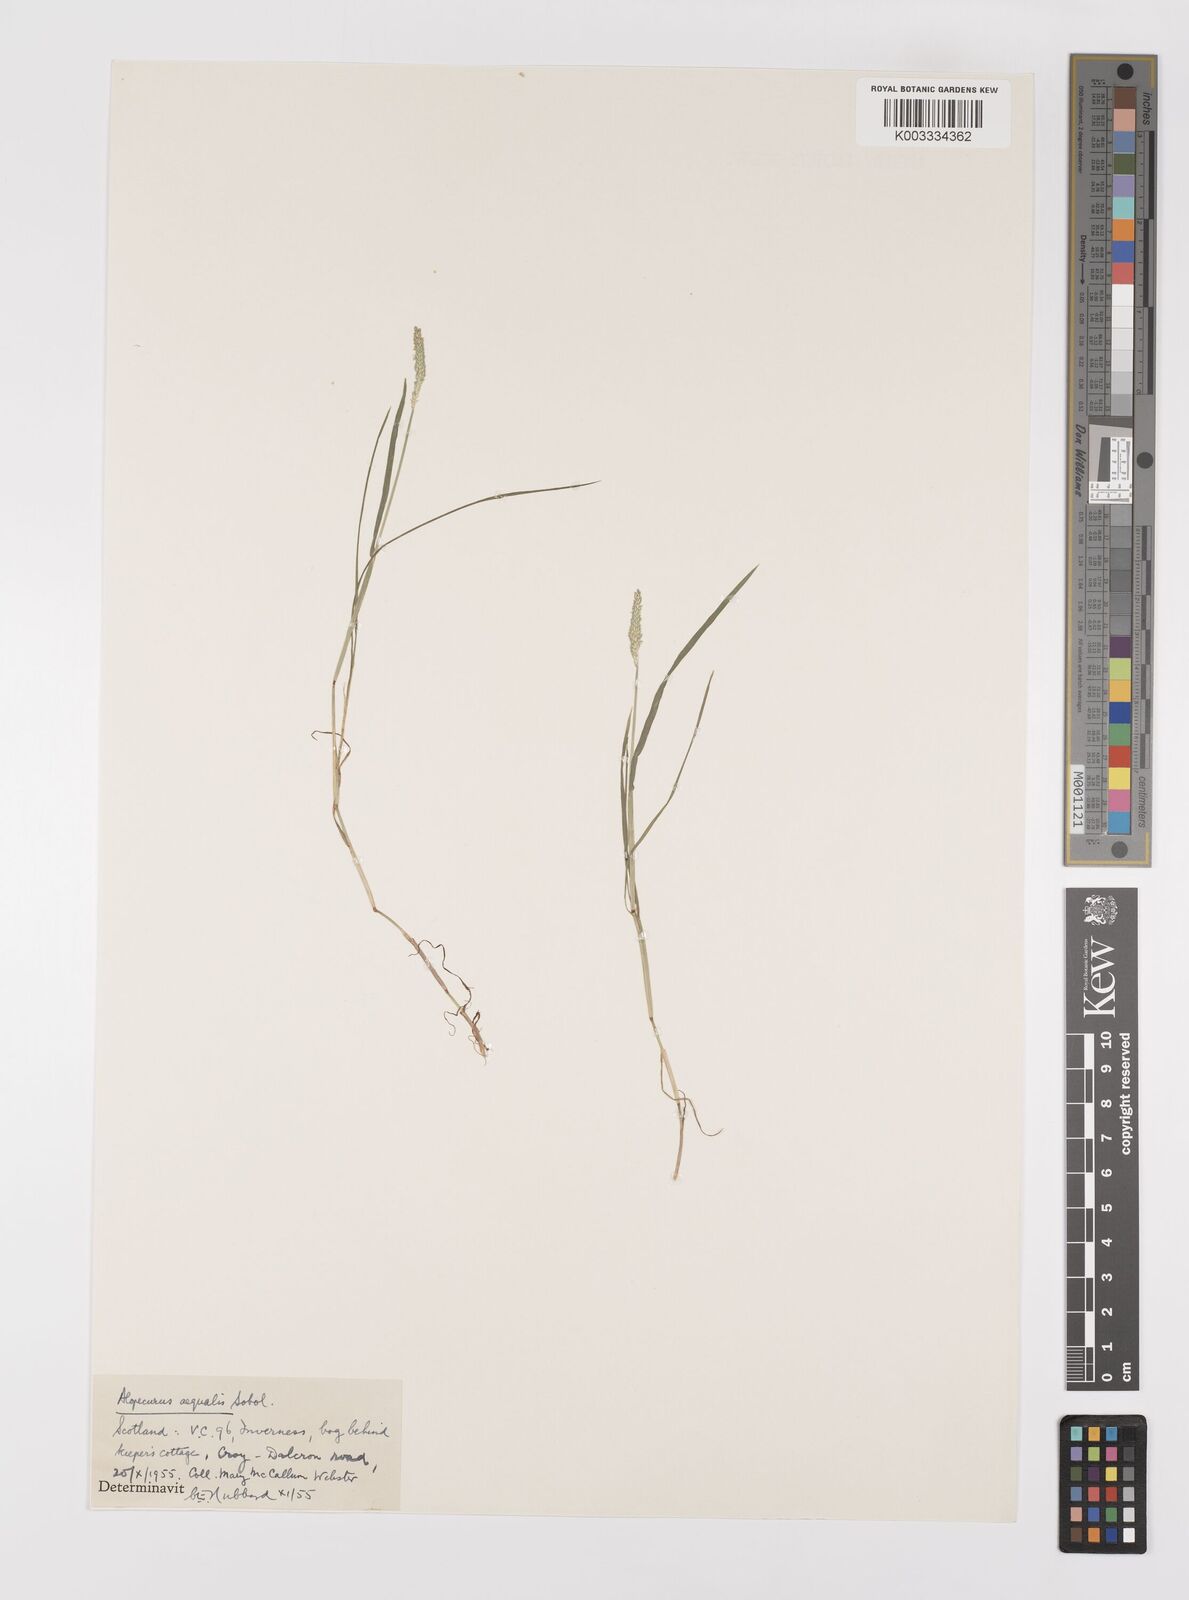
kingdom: Plantae
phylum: Tracheophyta
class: Liliopsida
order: Poales
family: Poaceae
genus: Alopecurus
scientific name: Alopecurus aequalis
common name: Orange foxtail
